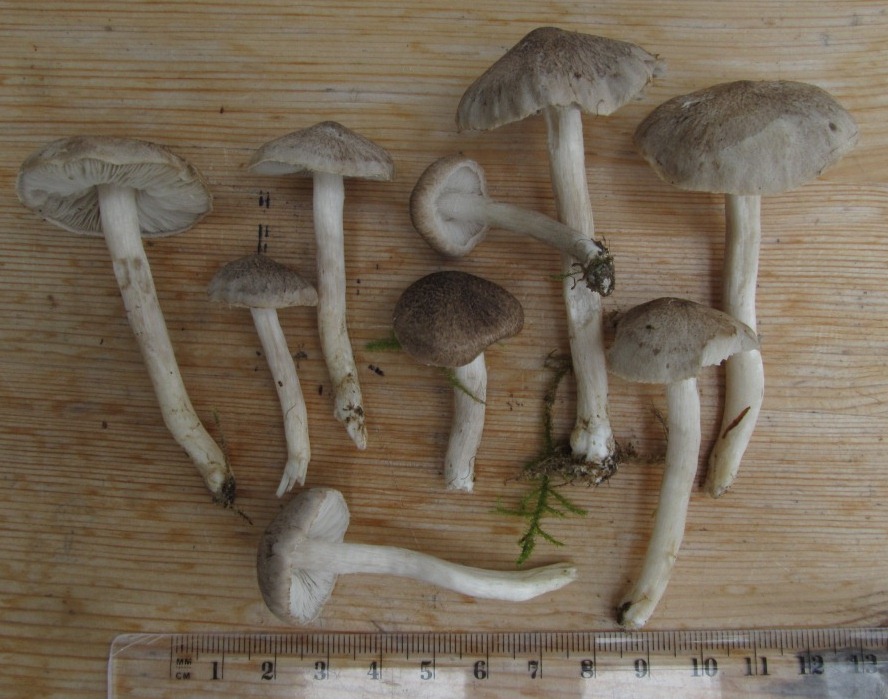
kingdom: Fungi
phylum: Basidiomycota
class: Agaricomycetes
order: Agaricales
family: Tricholomataceae
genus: Tricholoma
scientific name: Tricholoma argyraceum
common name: slør-ridderhat
